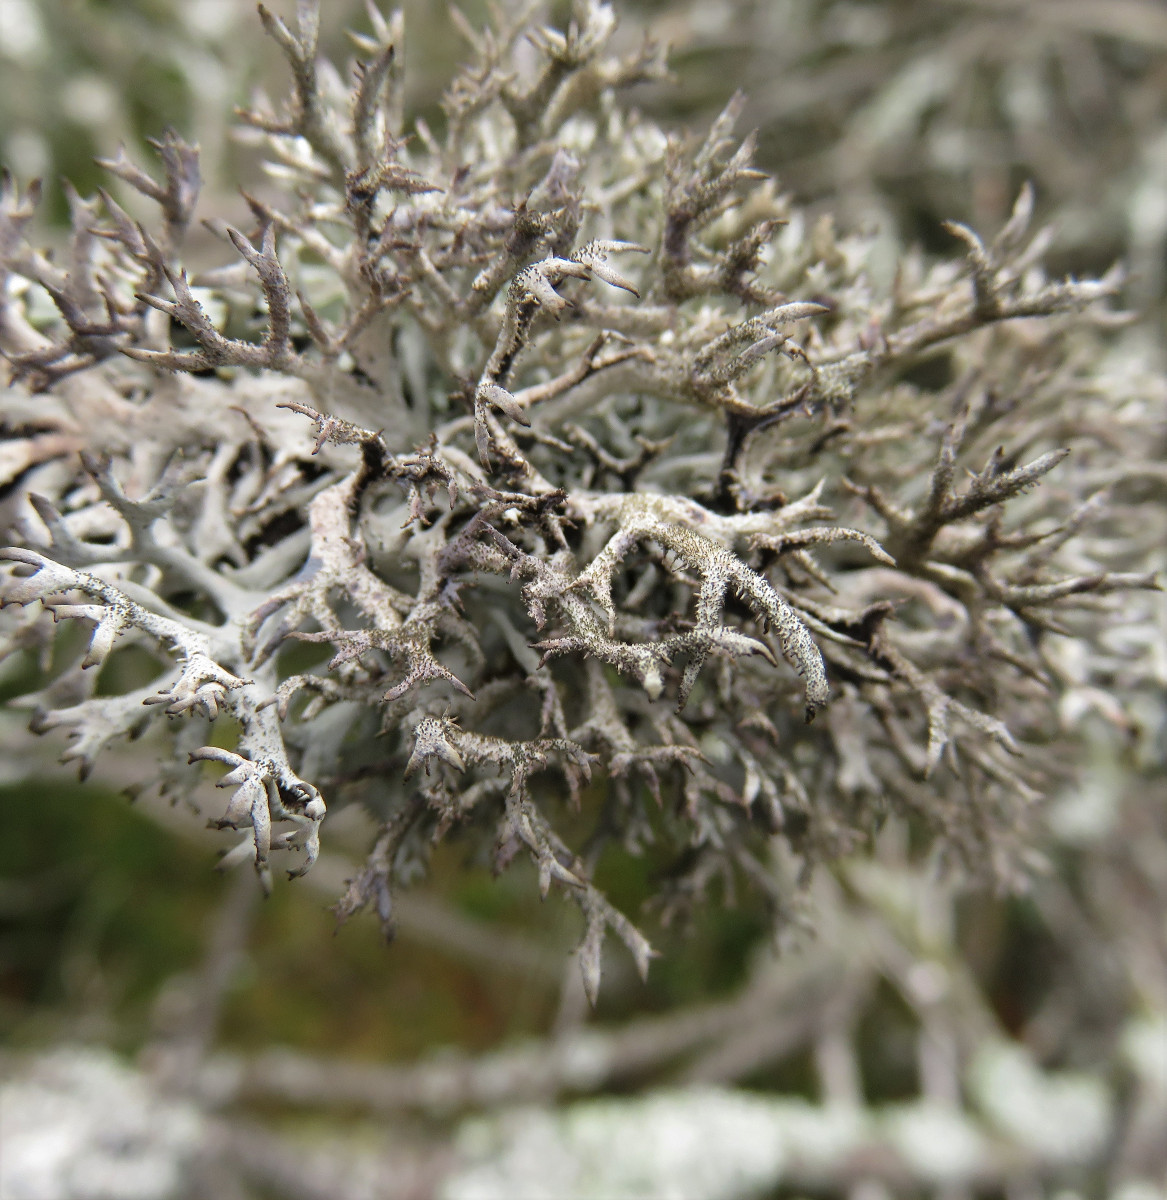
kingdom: Fungi
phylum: Ascomycota
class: Lecanoromycetes
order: Lecanorales
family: Parmeliaceae
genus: Pseudevernia
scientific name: Pseudevernia furfuracea
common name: grå fyrrelav
